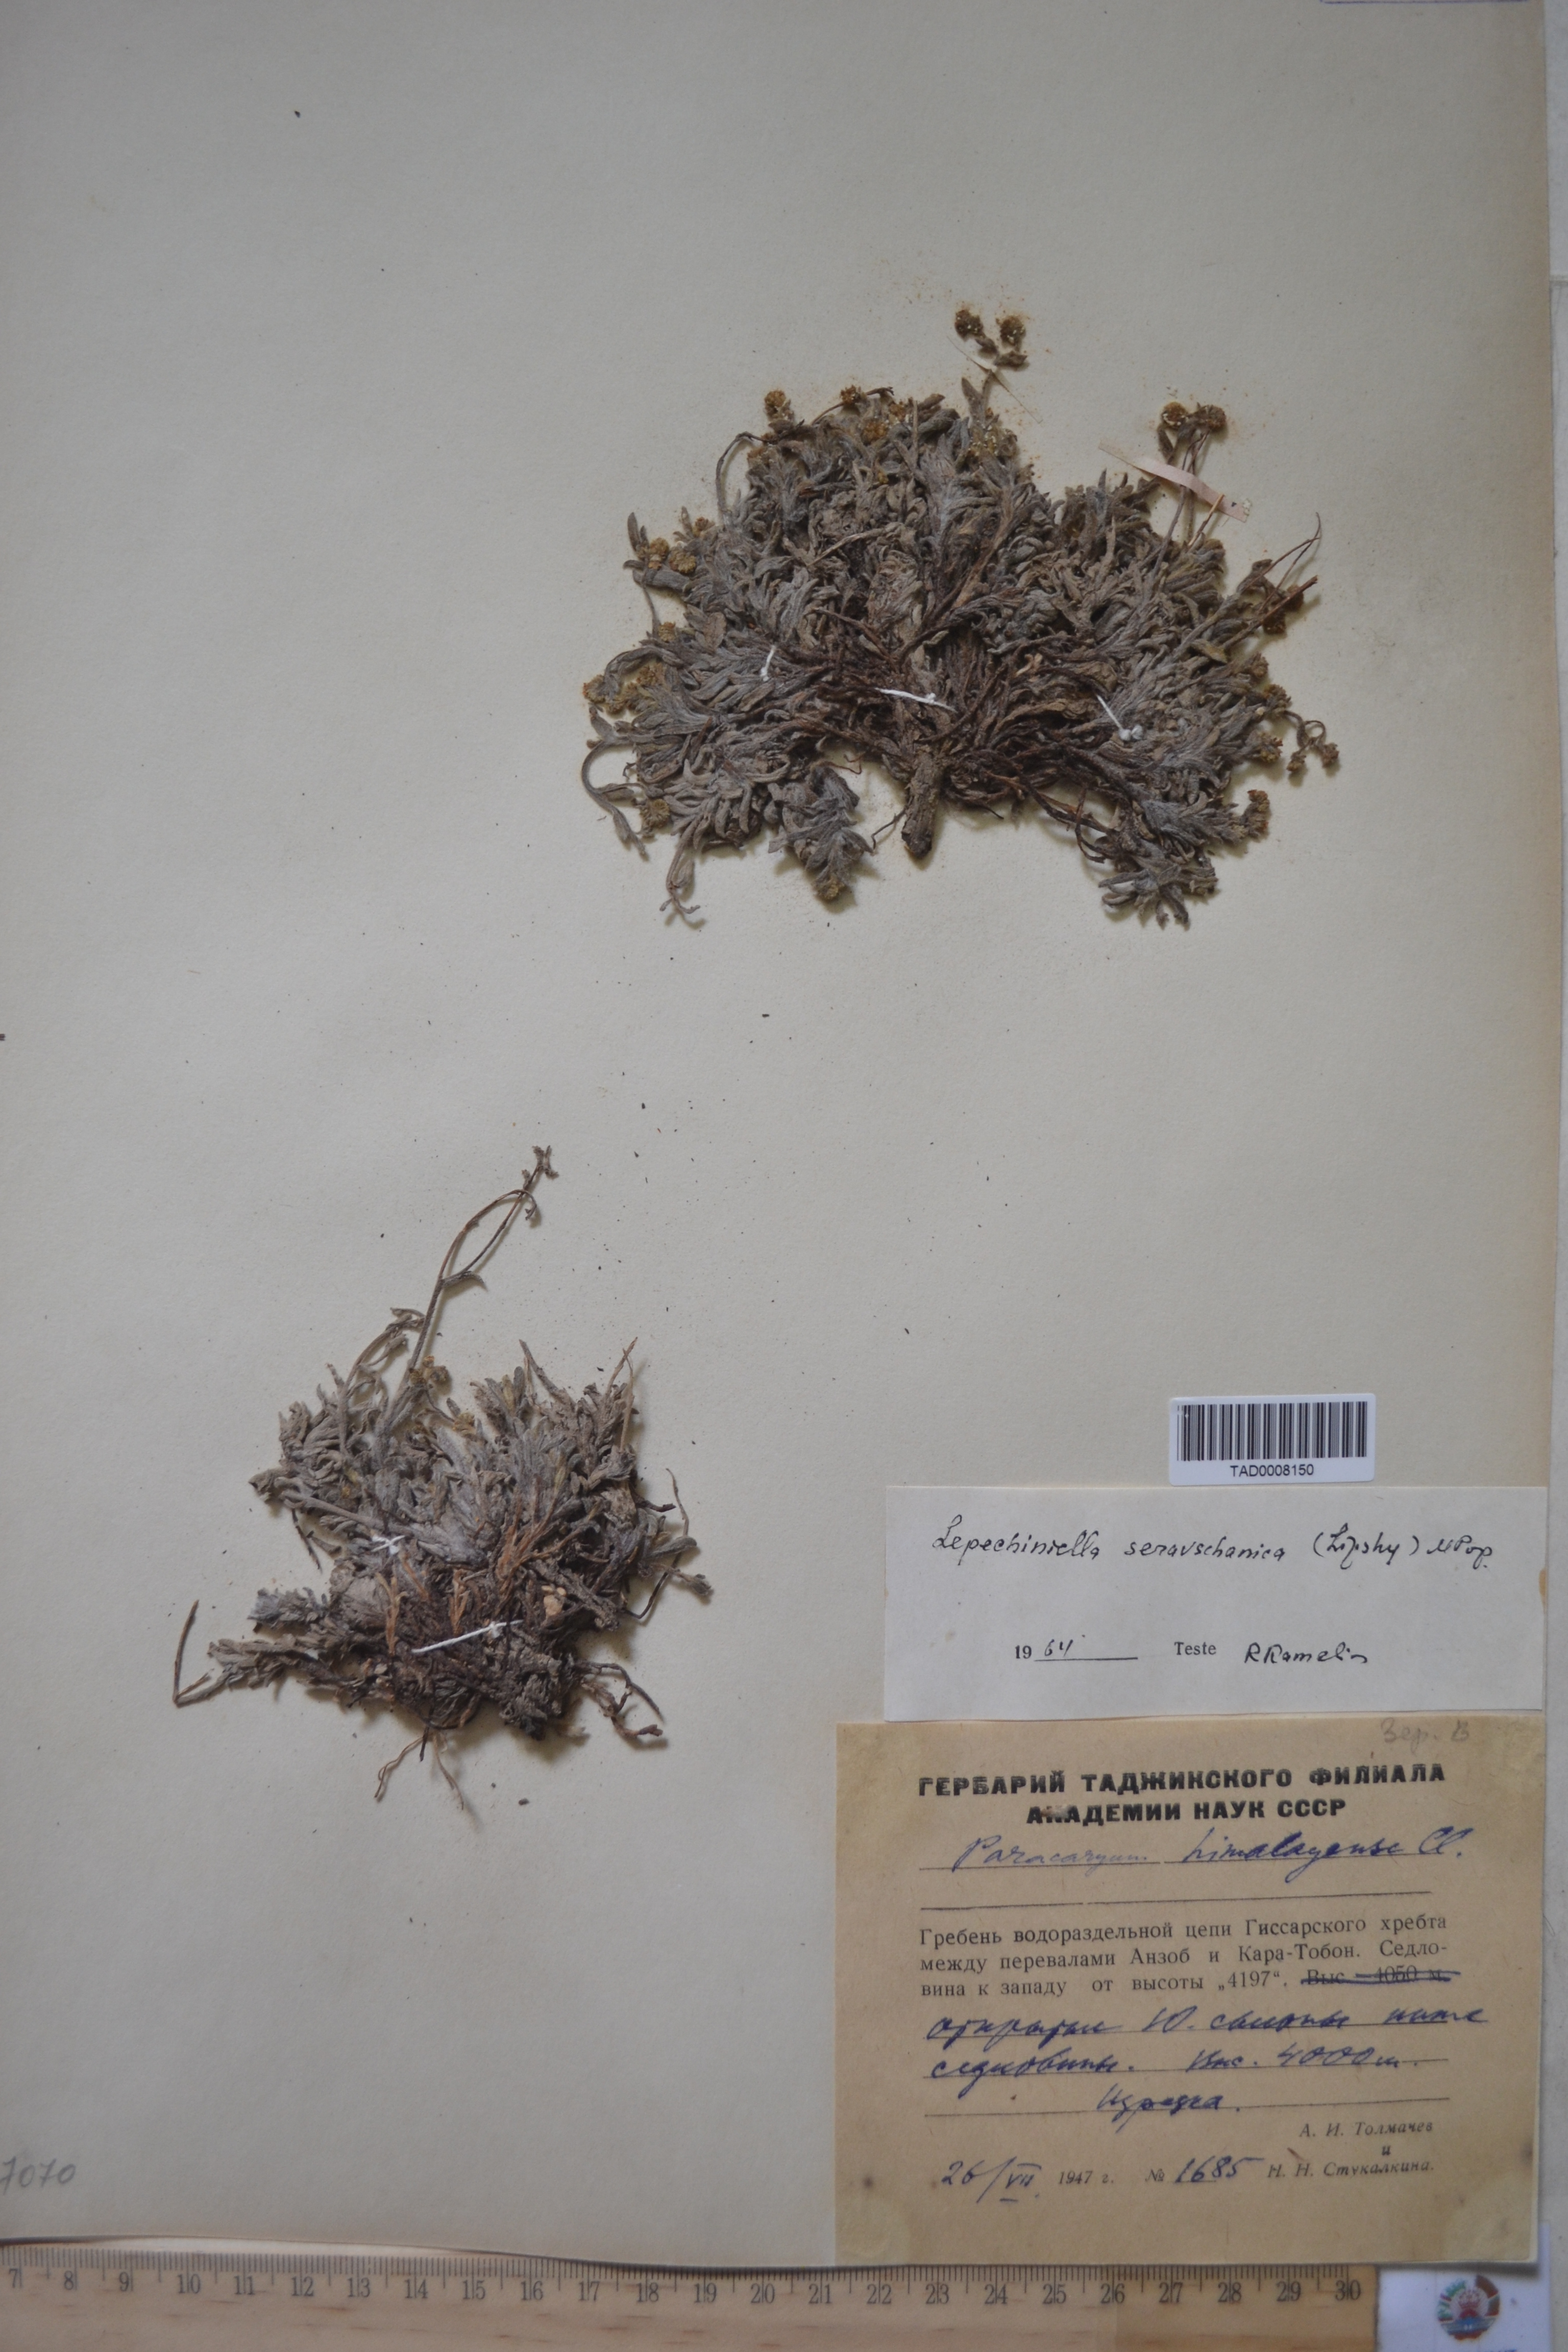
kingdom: Plantae
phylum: Tracheophyta
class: Magnoliopsida
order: Boraginales
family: Boraginaceae
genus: Paracaryum
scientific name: Paracaryum himalayense
